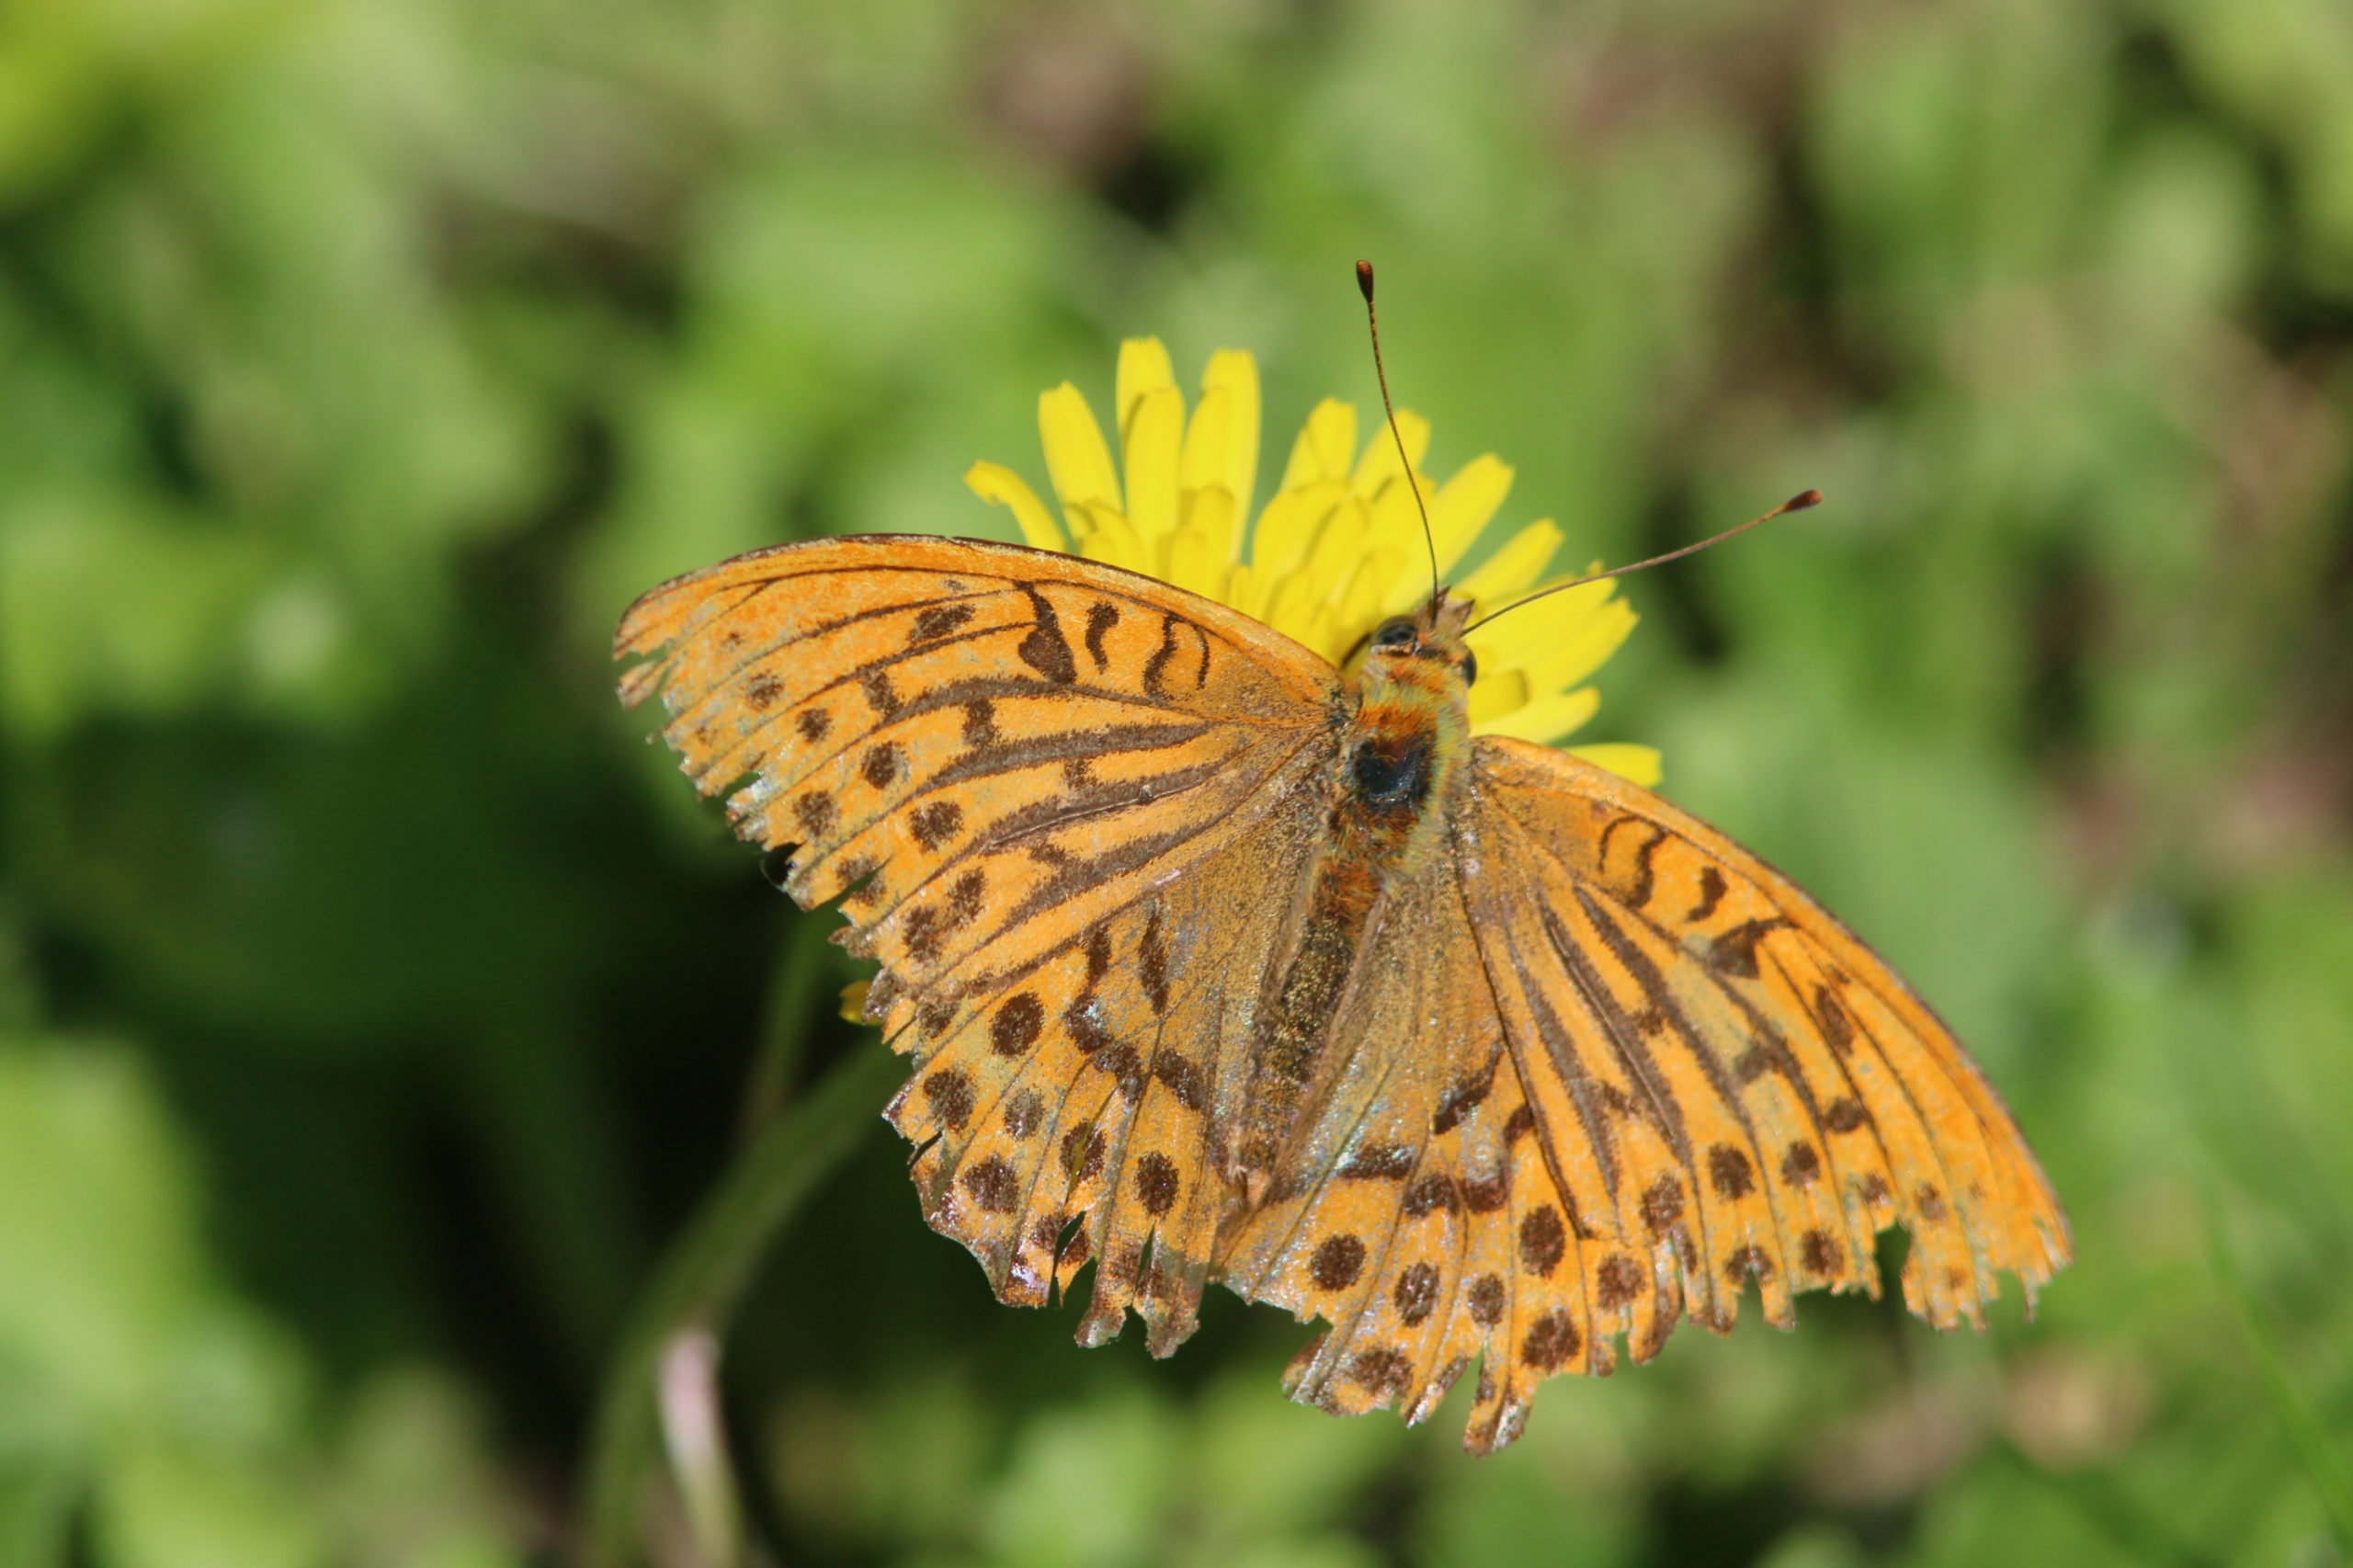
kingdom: Animalia
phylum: Arthropoda
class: Insecta
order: Lepidoptera
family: Nymphalidae
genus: Argynnis
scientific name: Argynnis paphia
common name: Kejserkåbe
